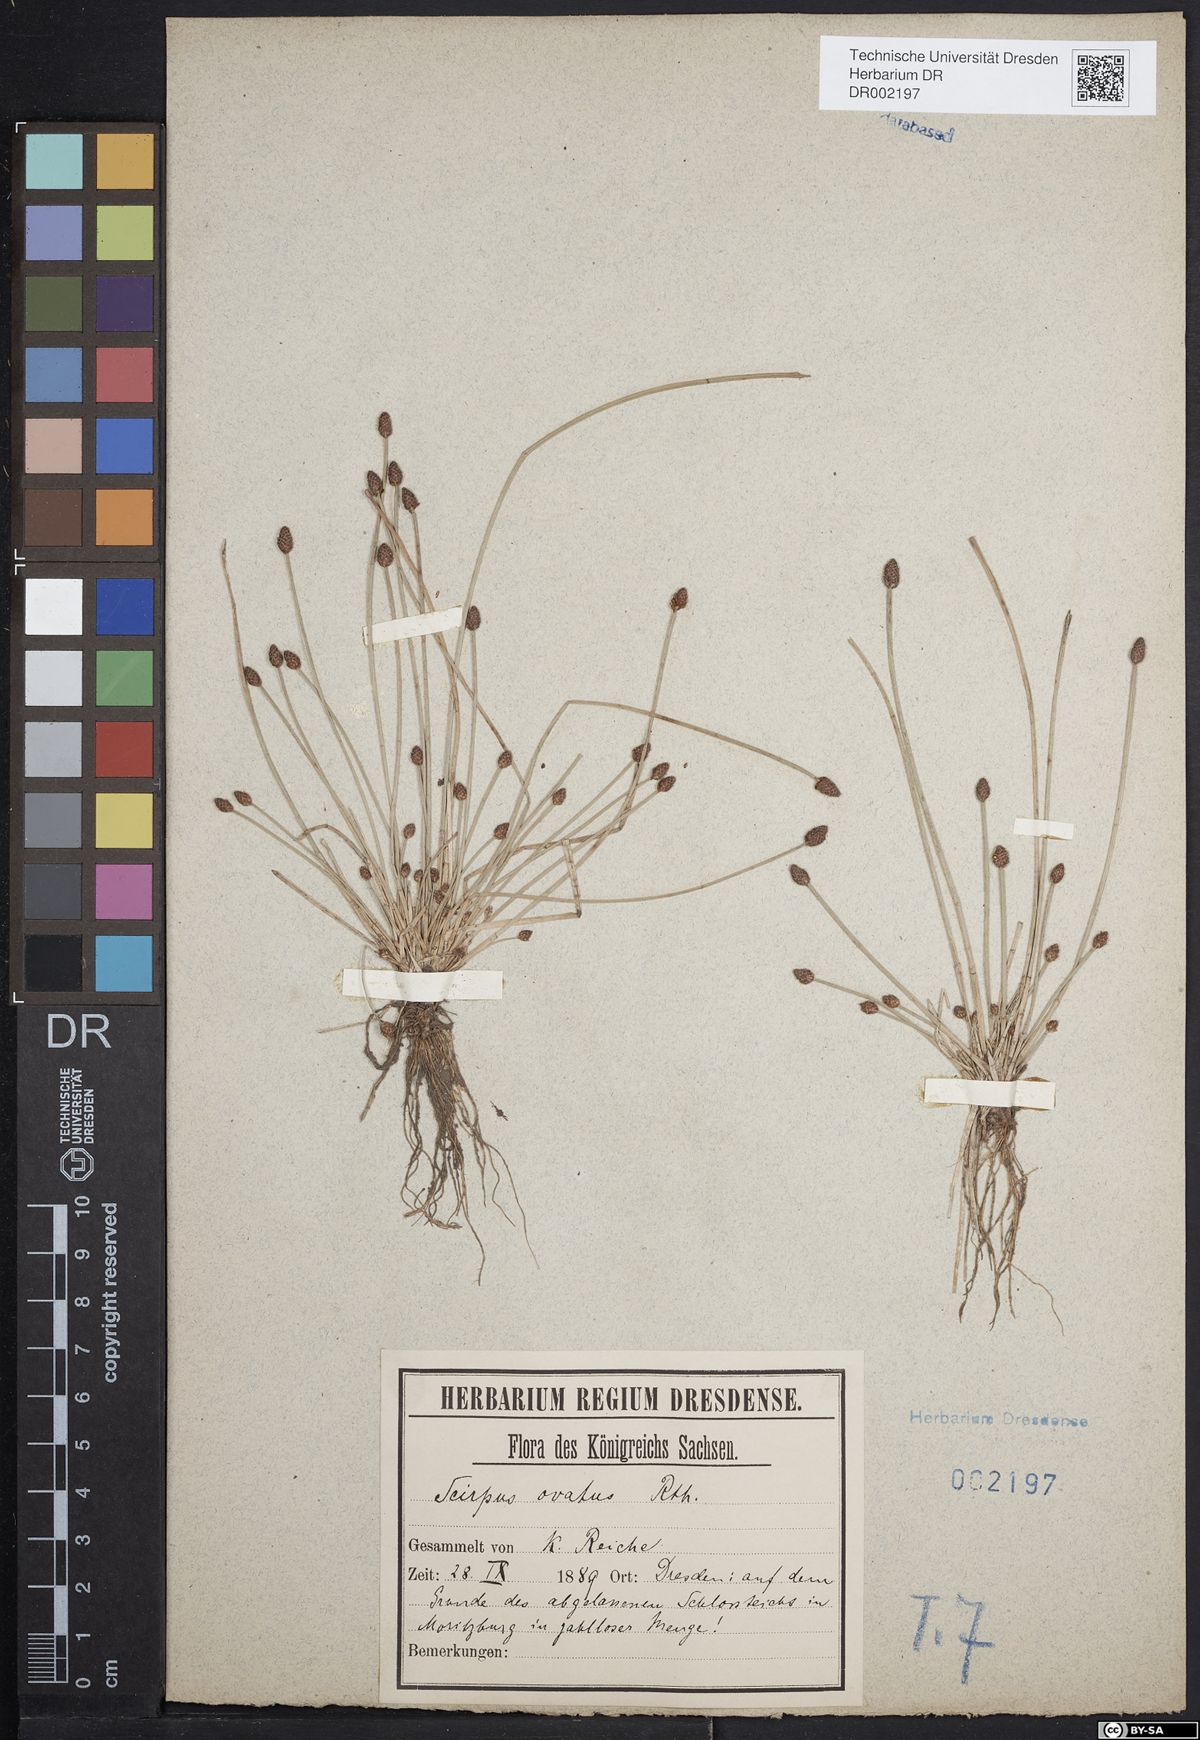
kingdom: Plantae
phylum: Tracheophyta
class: Liliopsida
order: Poales
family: Cyperaceae
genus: Eleocharis
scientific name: Eleocharis ovata
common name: Oval spike-rush
